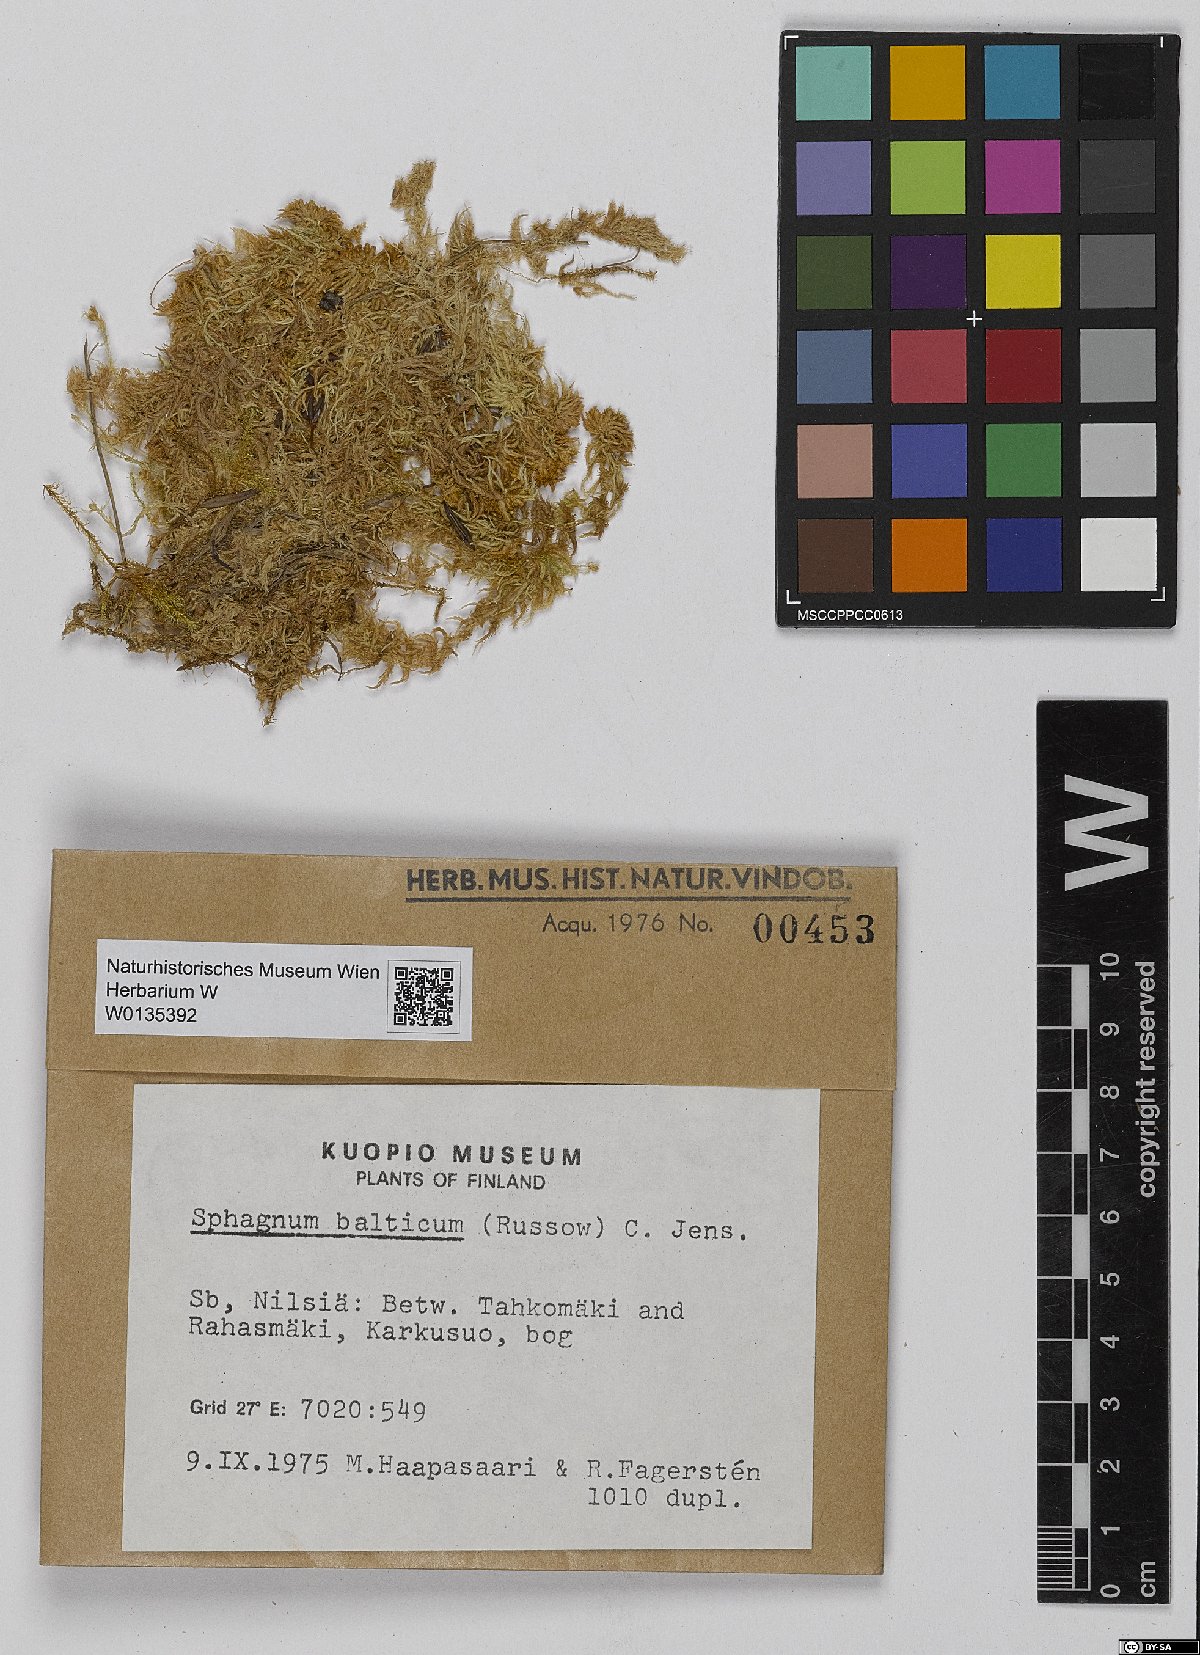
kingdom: Plantae
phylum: Bryophyta
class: Sphagnopsida
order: Sphagnales
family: Sphagnaceae
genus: Sphagnum
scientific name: Sphagnum balticum
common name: Baltic bog-moss
